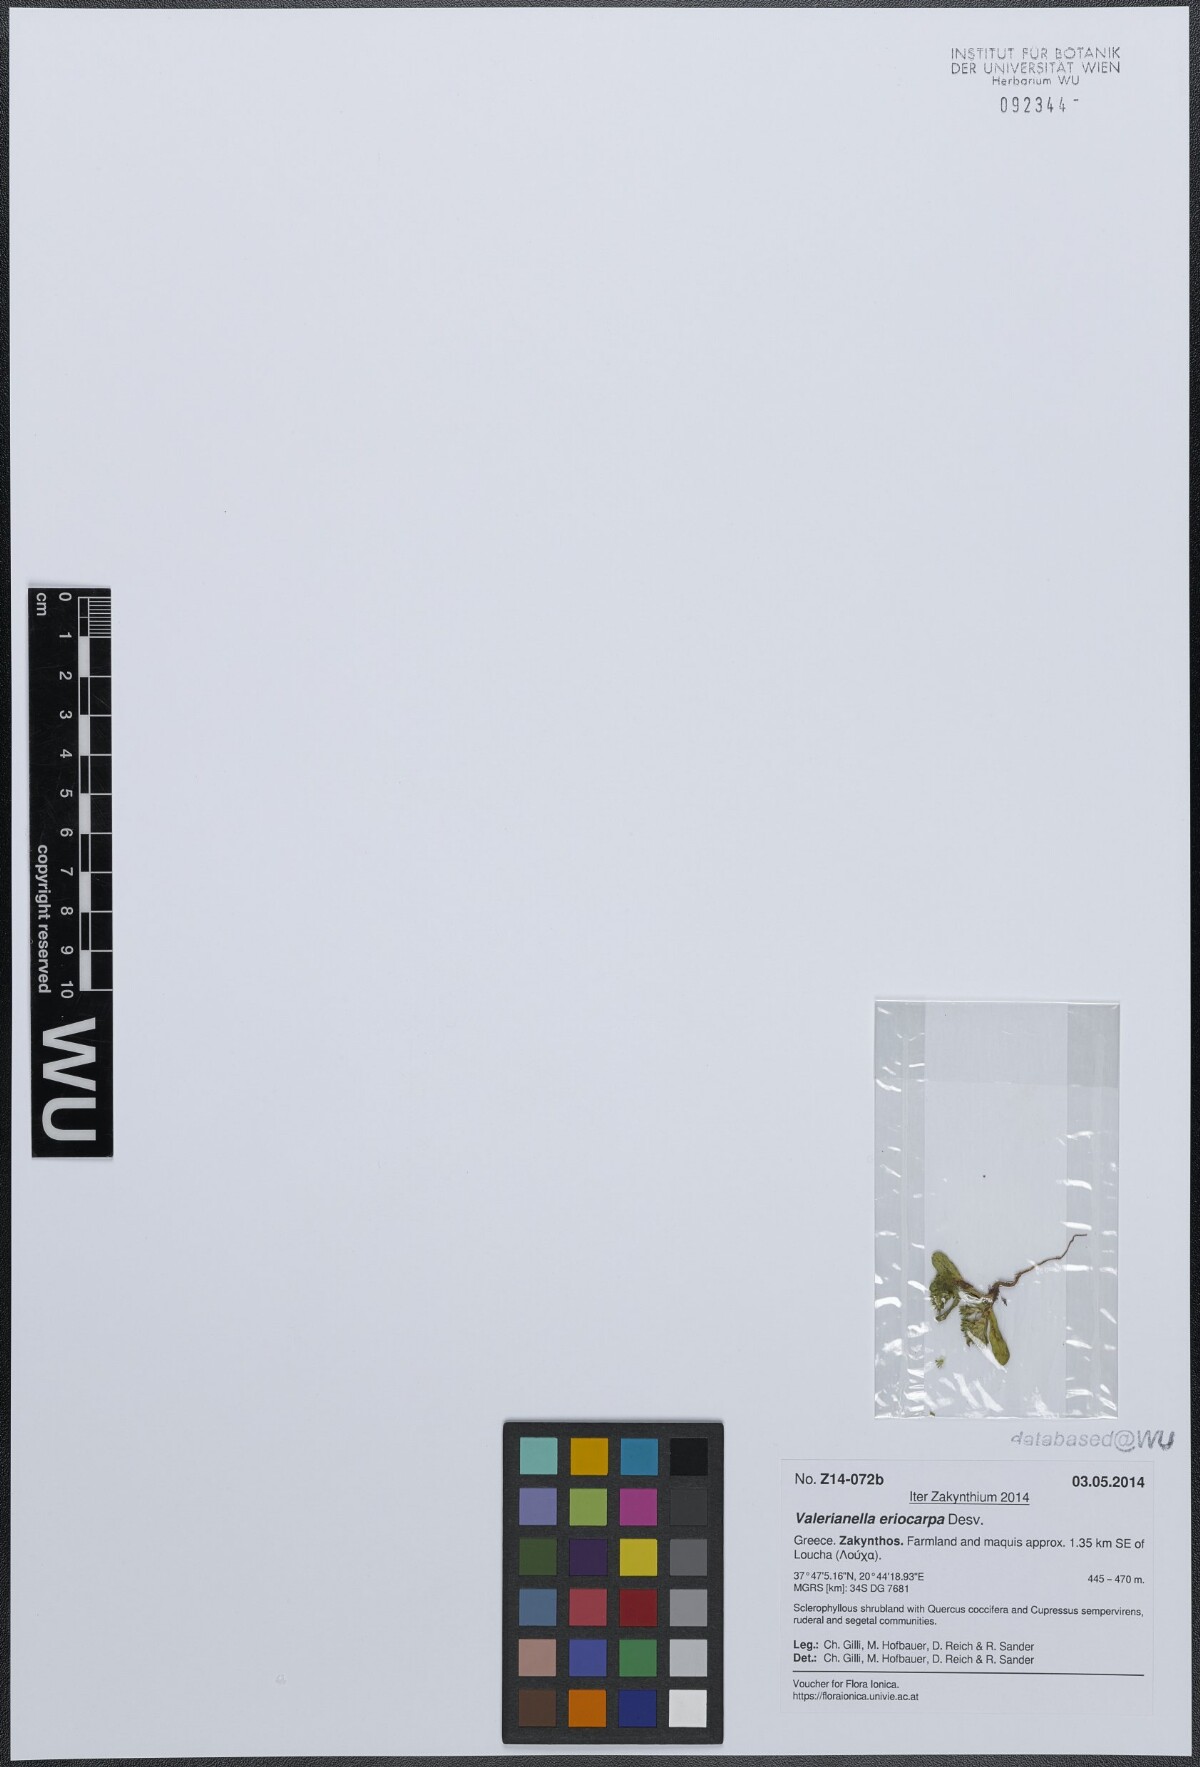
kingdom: Plantae
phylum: Tracheophyta
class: Magnoliopsida
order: Dipsacales
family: Caprifoliaceae
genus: Valerianella
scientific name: Valerianella eriocarpa
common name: Hairy-fruited cornsalad
